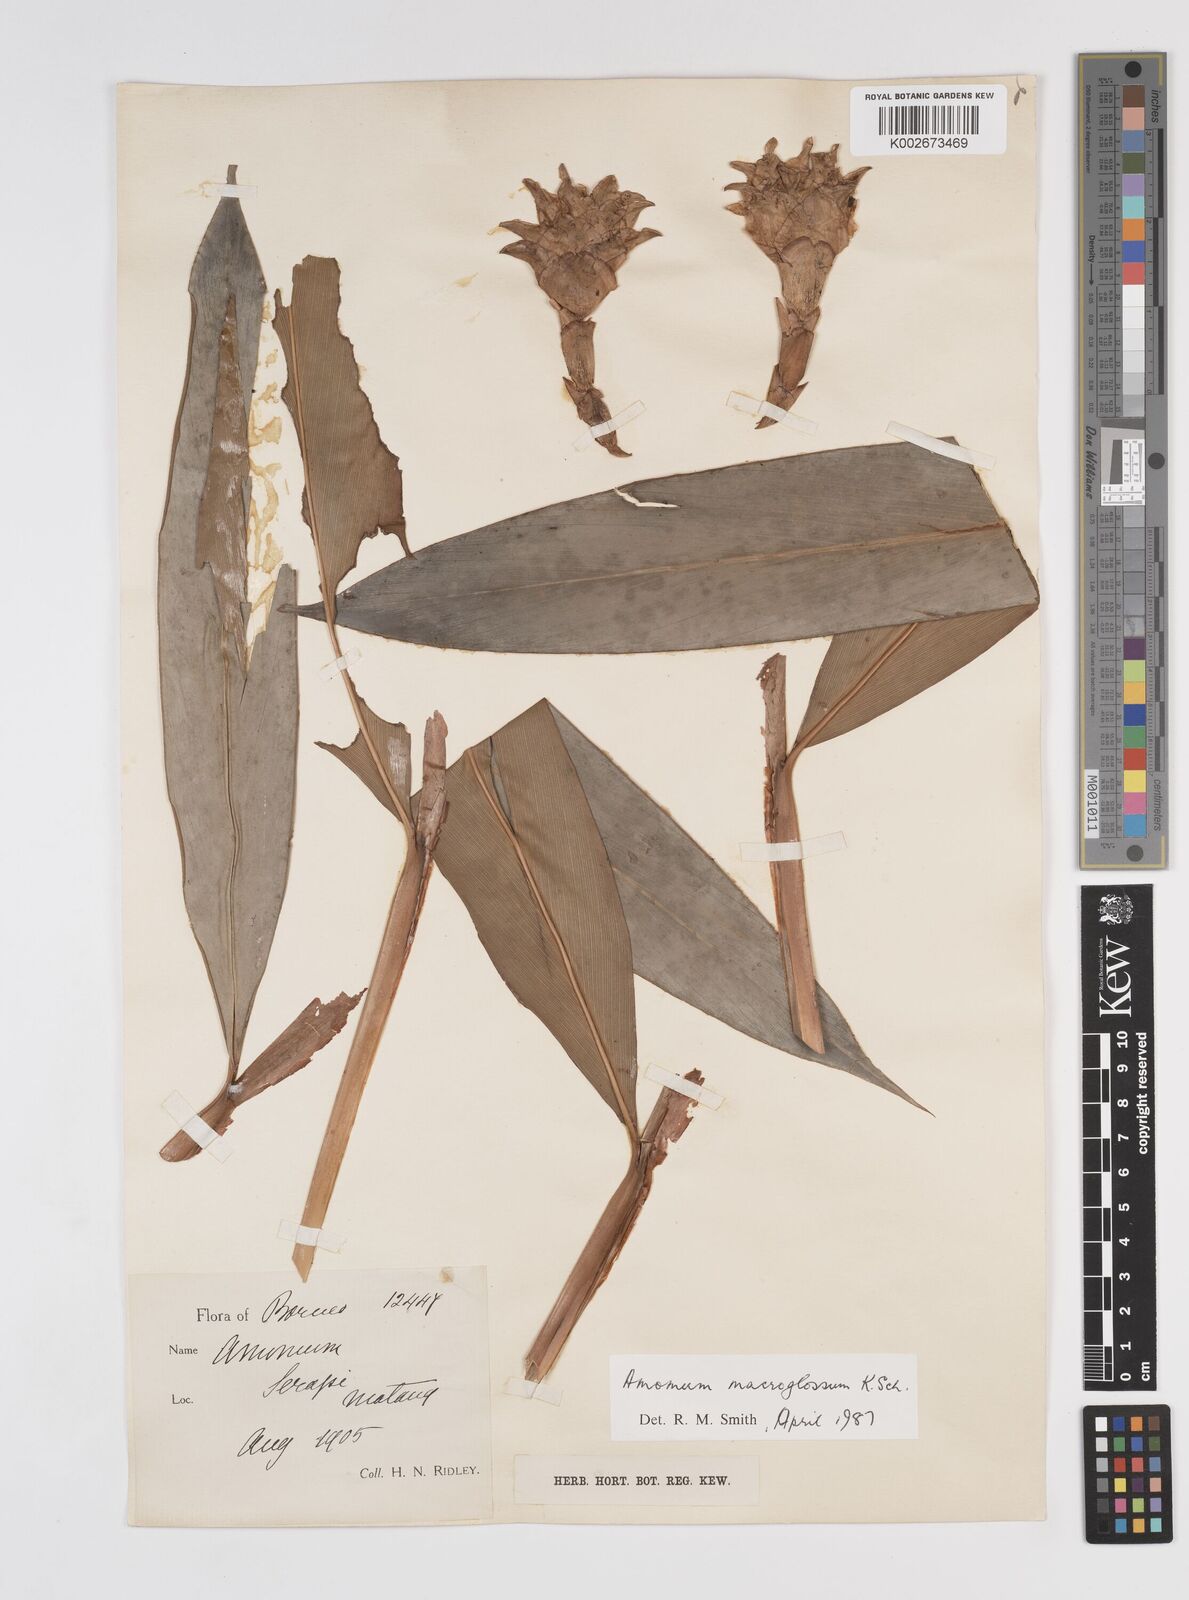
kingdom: Plantae
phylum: Tracheophyta
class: Liliopsida
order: Zingiberales
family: Zingiberaceae
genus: Aframomum
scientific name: Aframomum citratum
